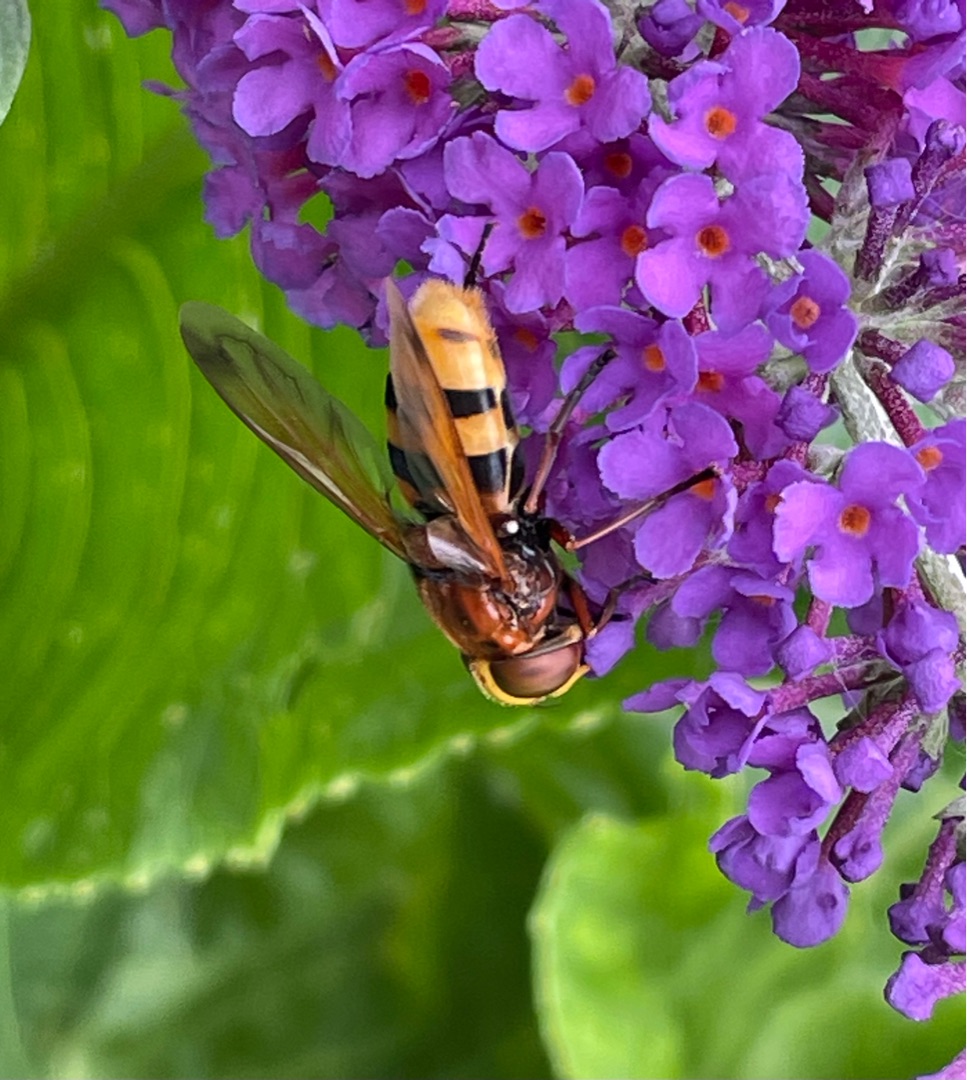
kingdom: Animalia
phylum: Arthropoda
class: Insecta
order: Diptera
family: Syrphidae
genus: Volucella
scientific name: Volucella zonaria
